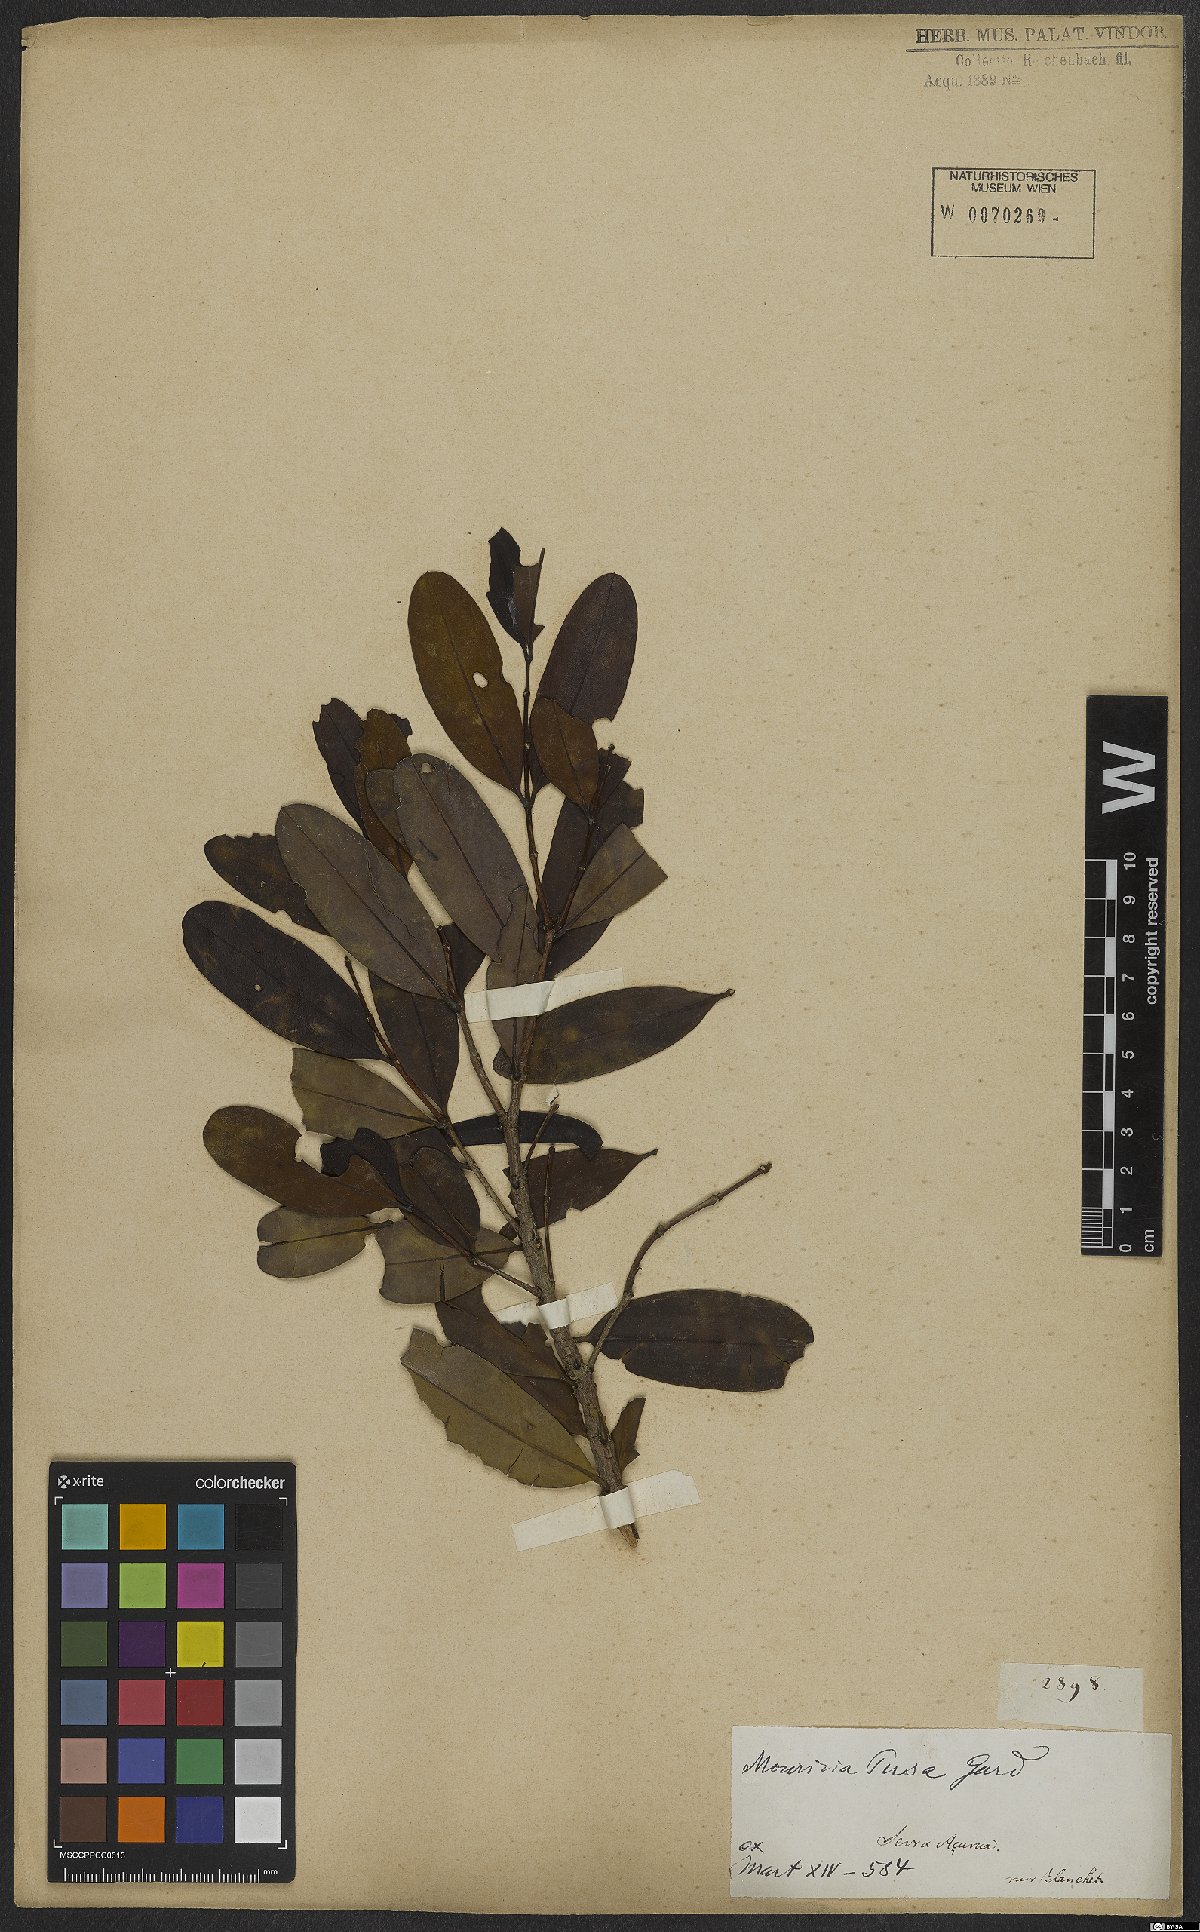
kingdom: Plantae
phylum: Tracheophyta
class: Magnoliopsida
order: Myrtales
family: Melastomataceae
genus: Mouriri
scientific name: Mouriri pusa
